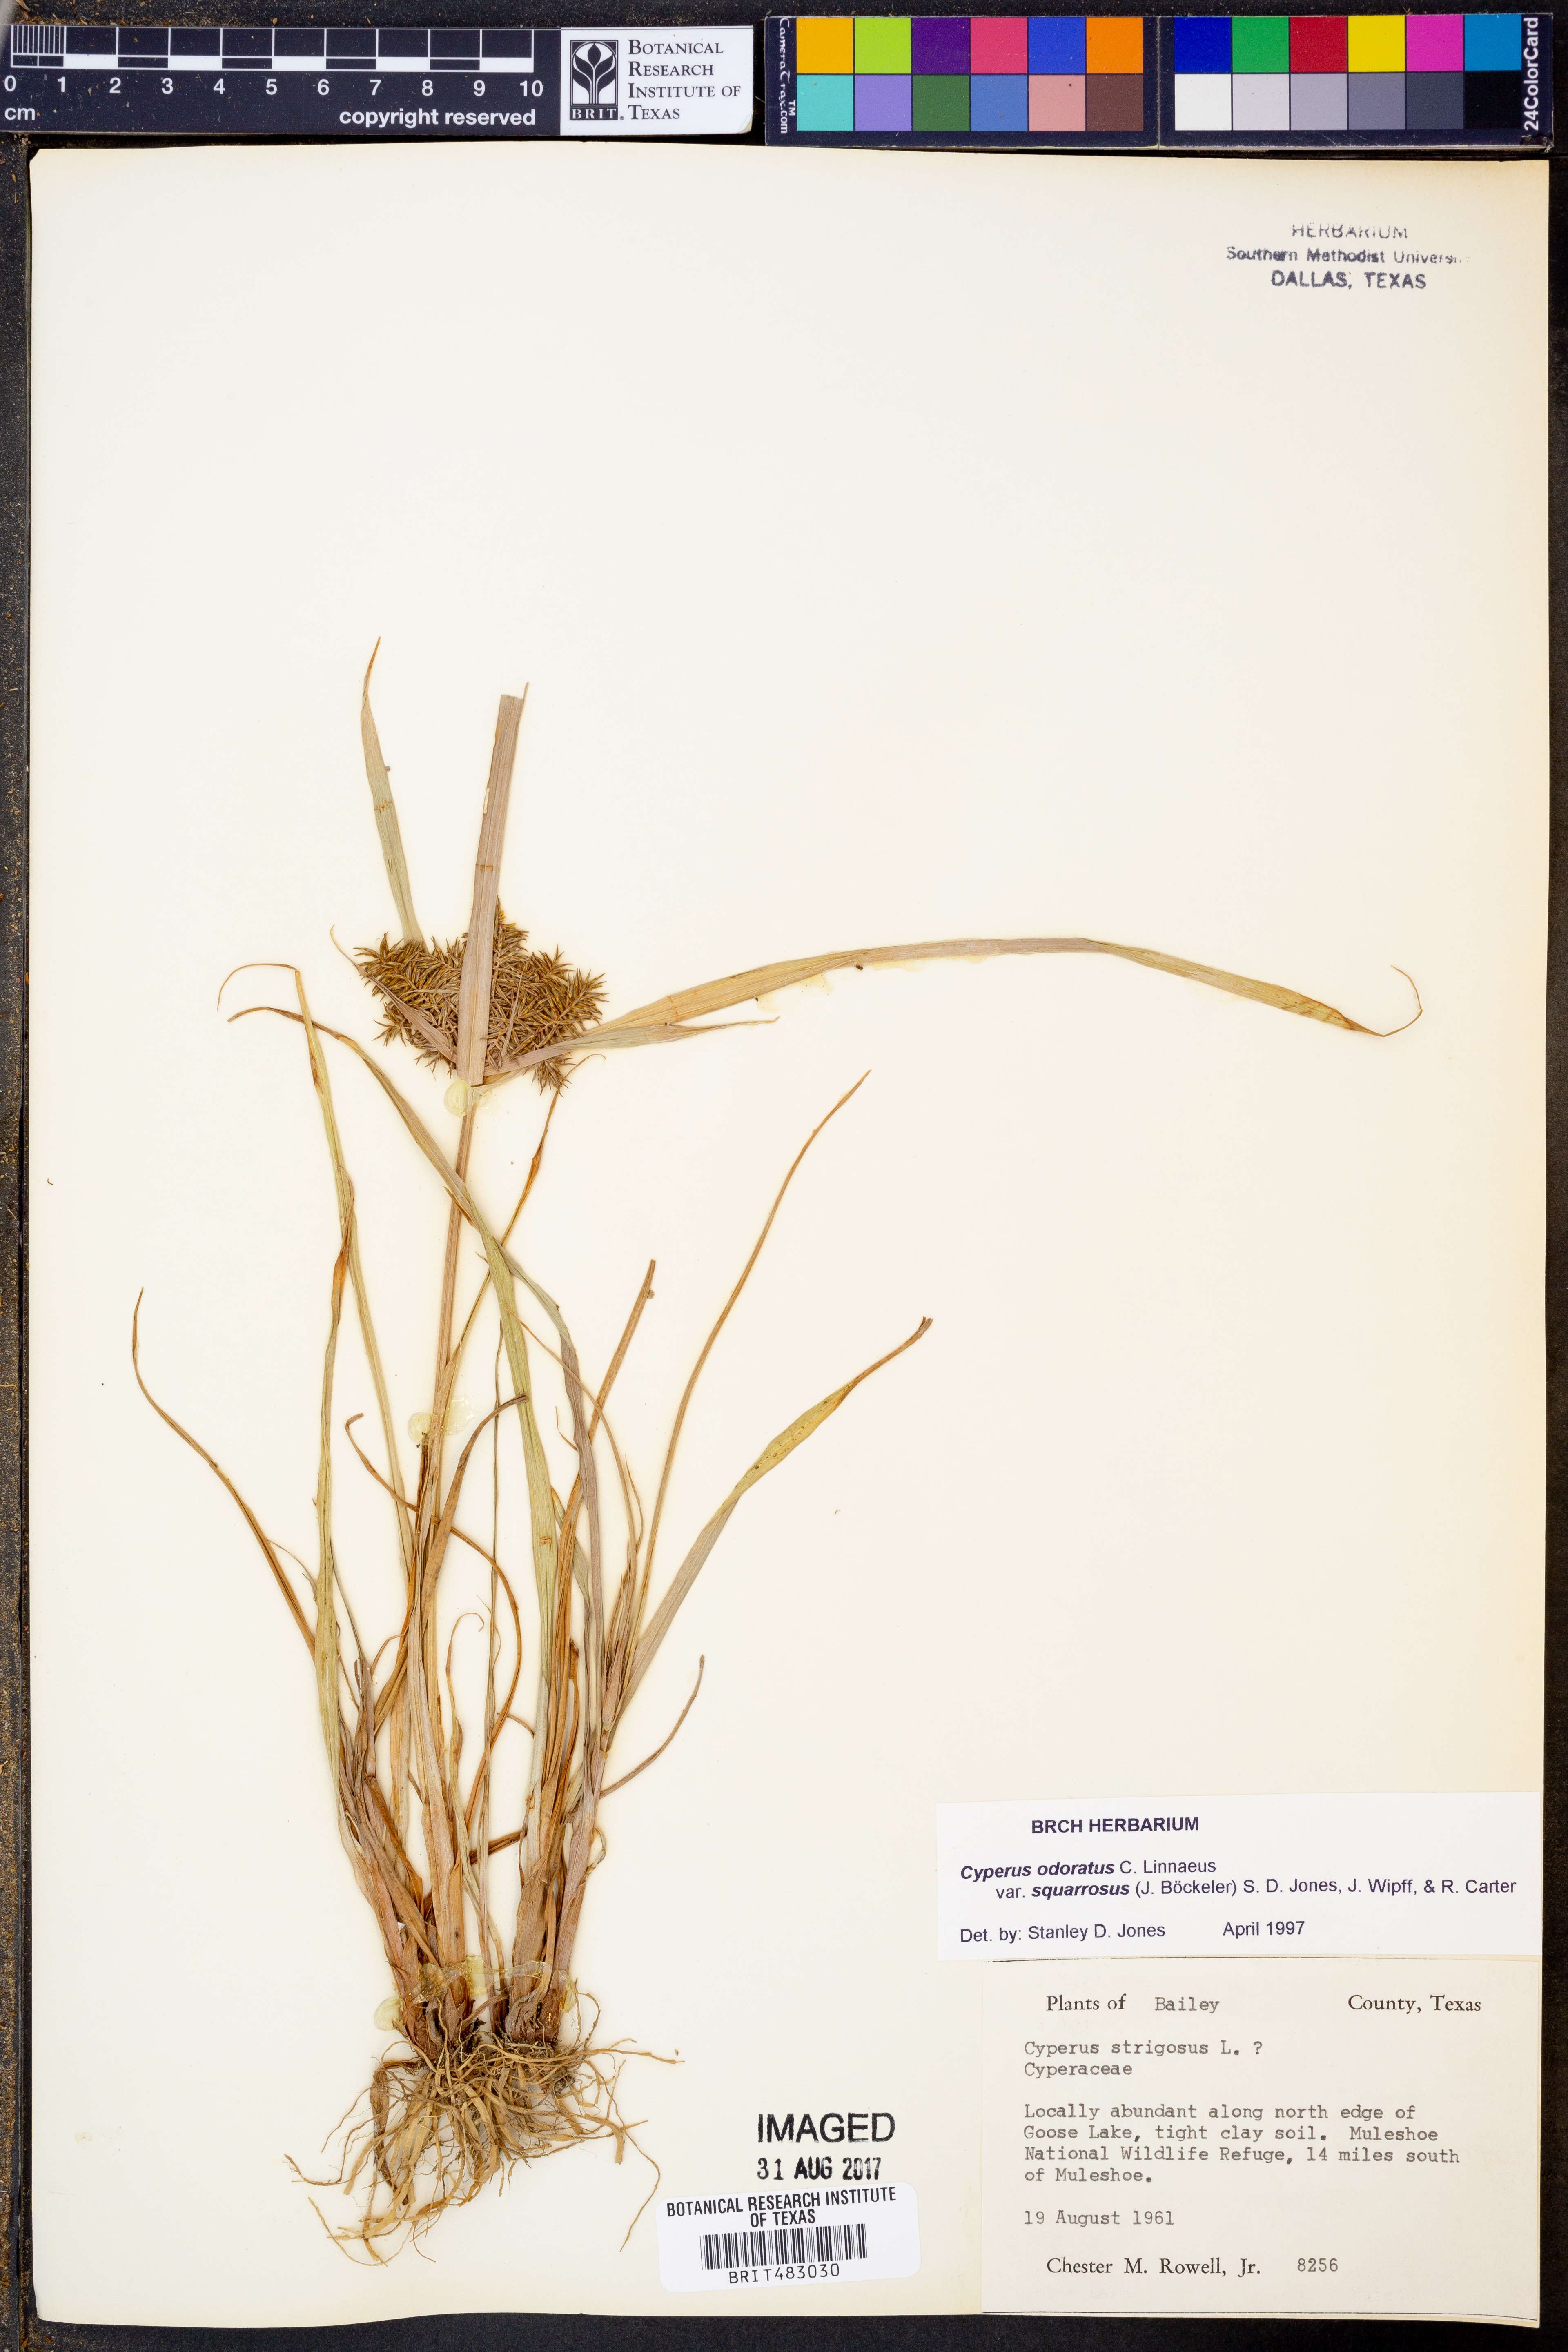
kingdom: Plantae
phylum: Tracheophyta
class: Liliopsida
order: Poales
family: Cyperaceae
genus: Cyperus
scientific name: Cyperus
